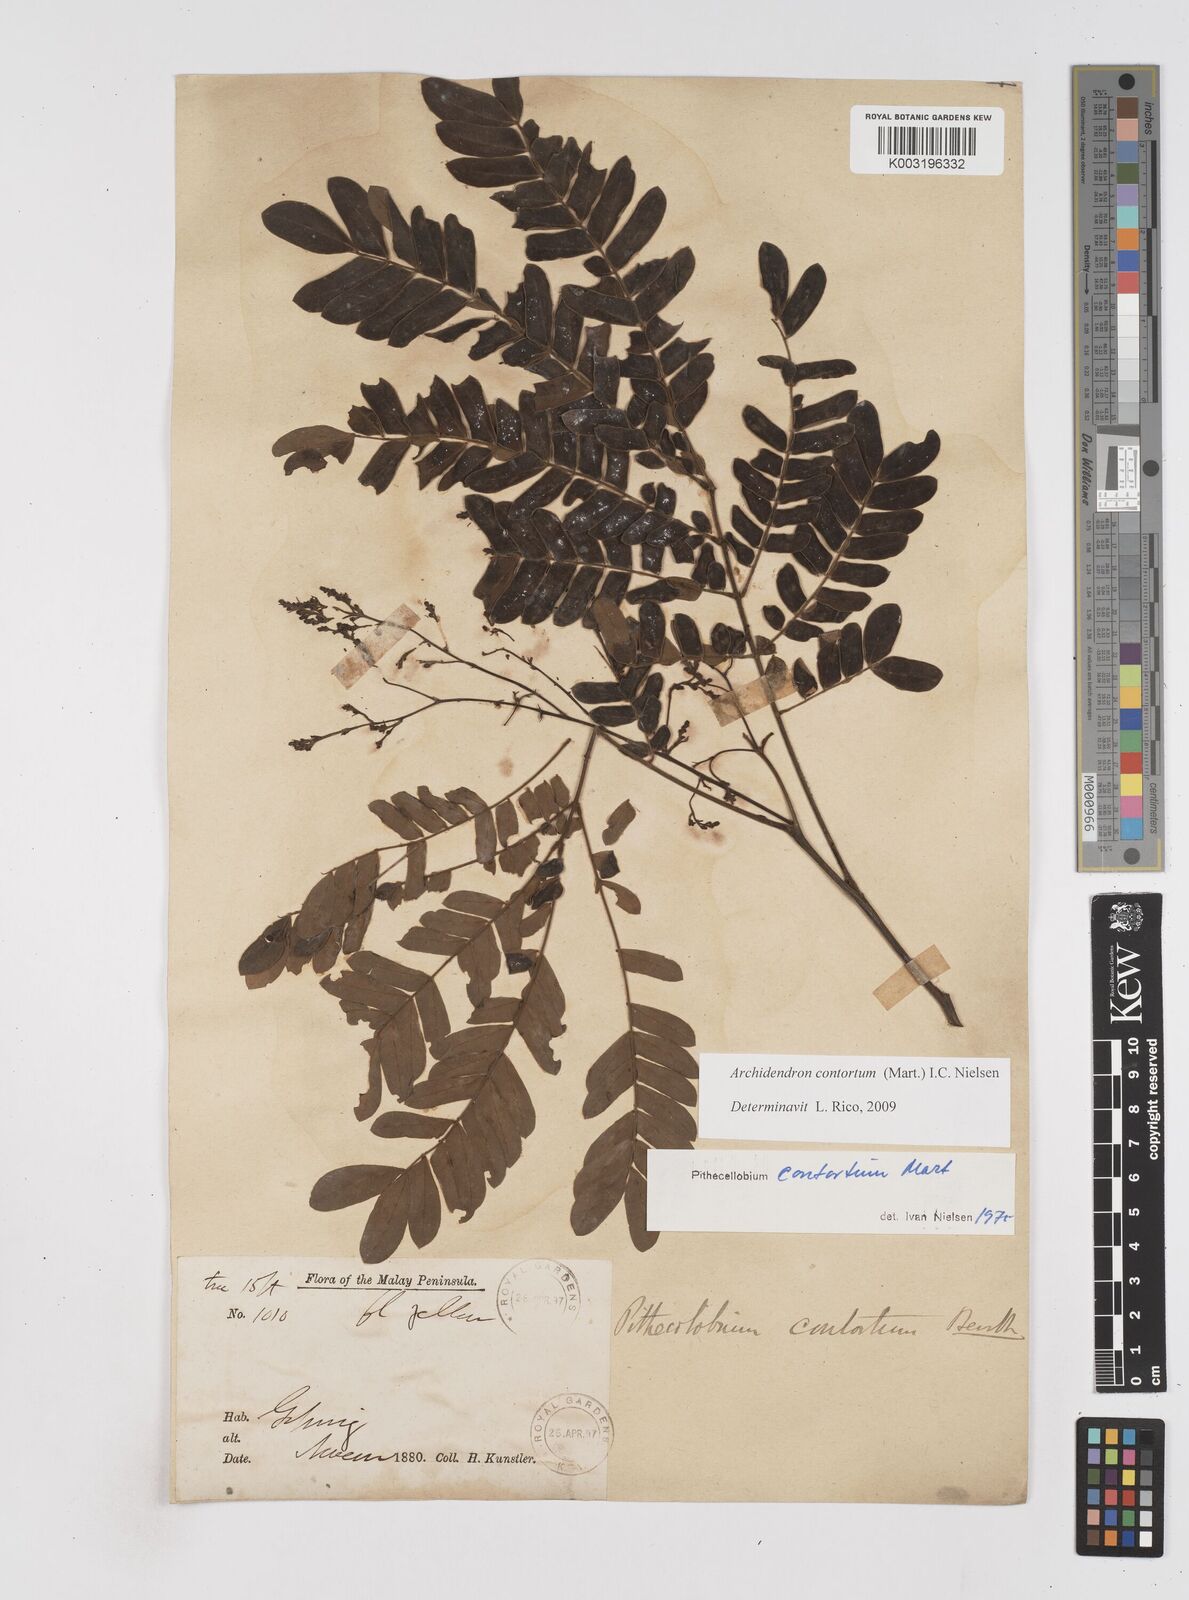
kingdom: Plantae
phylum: Tracheophyta
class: Magnoliopsida
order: Fabales
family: Fabaceae
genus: Archidendron
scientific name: Archidendron contortum
